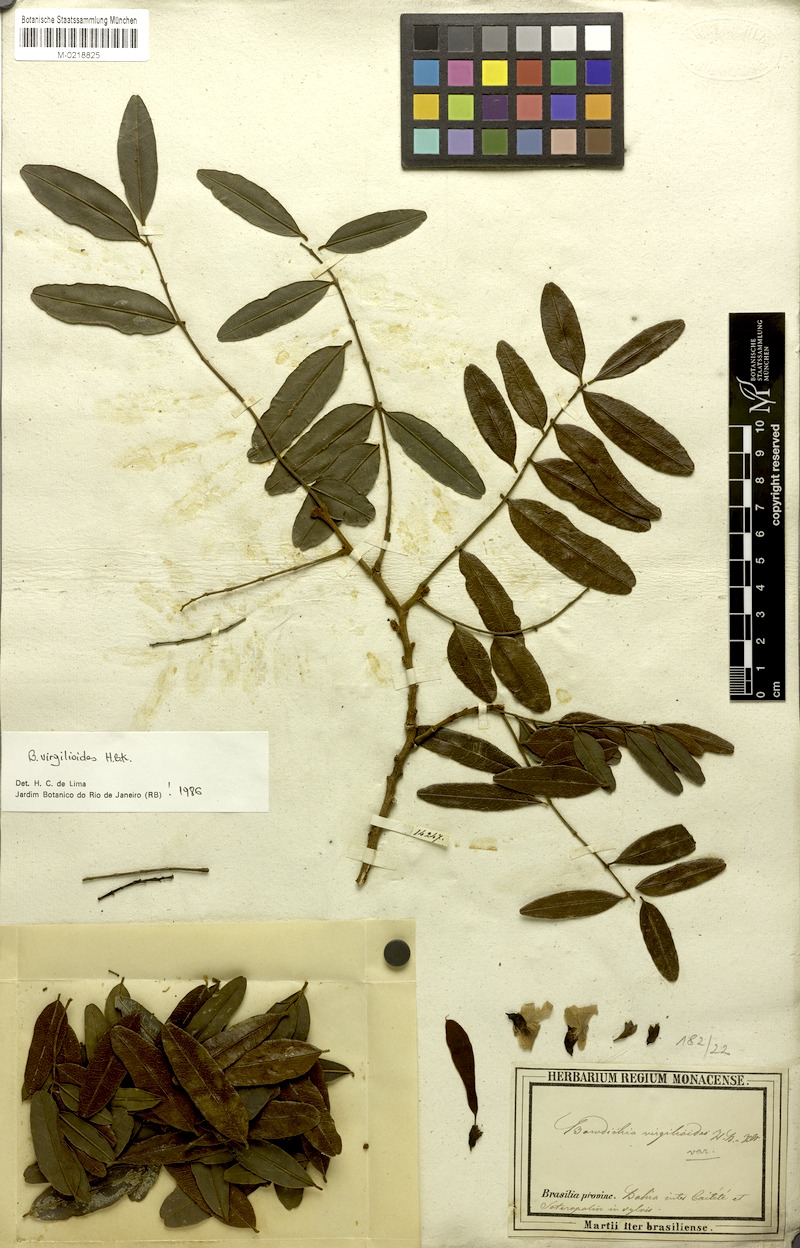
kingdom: Plantae
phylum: Tracheophyta
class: Magnoliopsida
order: Fabales
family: Fabaceae
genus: Bowdichia
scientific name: Bowdichia virgilioides
